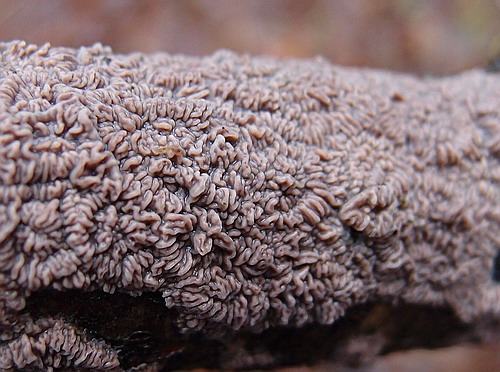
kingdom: Fungi
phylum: Basidiomycota
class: Agaricomycetes
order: Polyporales
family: Meruliaceae
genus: Phlebia
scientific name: Phlebia radiata
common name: stråle-åresvamp
